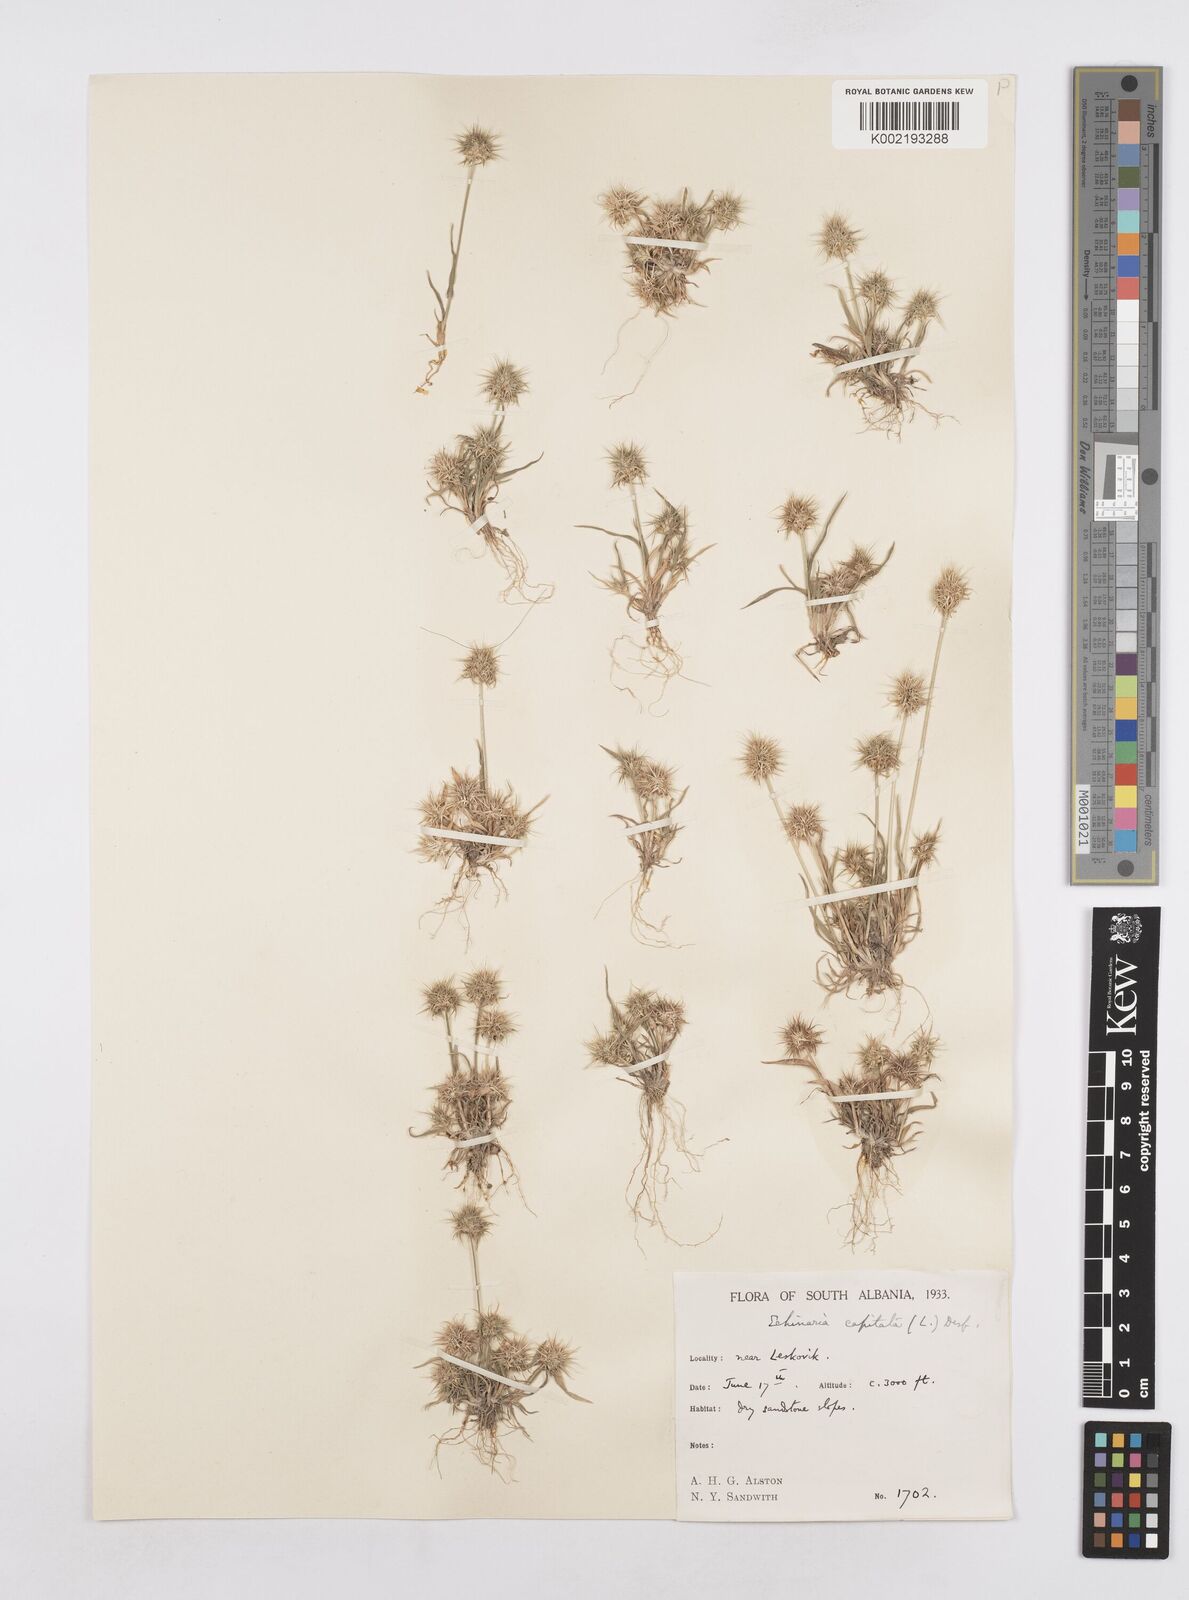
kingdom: Plantae
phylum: Tracheophyta
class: Liliopsida
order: Poales
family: Poaceae
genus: Echinaria
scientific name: Echinaria capitata
